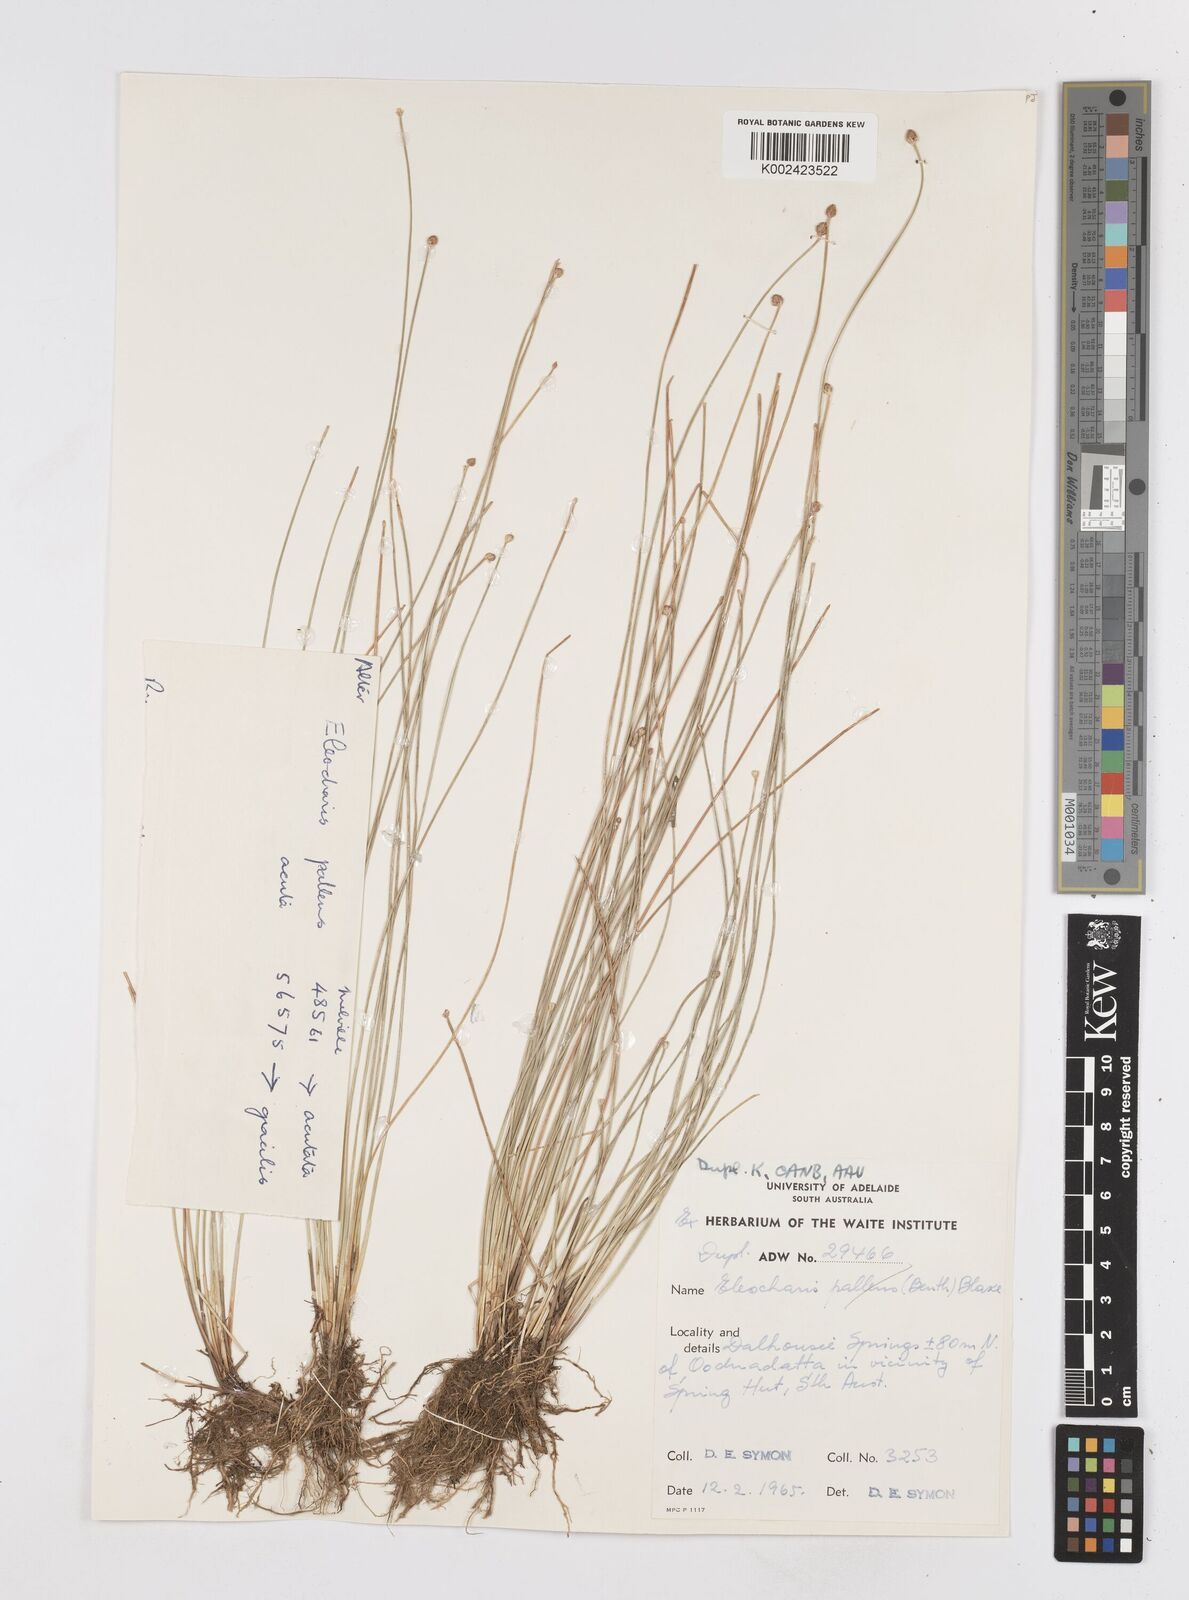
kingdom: Plantae
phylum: Tracheophyta
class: Liliopsida
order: Poales
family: Cyperaceae
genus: Eleocharis
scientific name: Eleocharis
